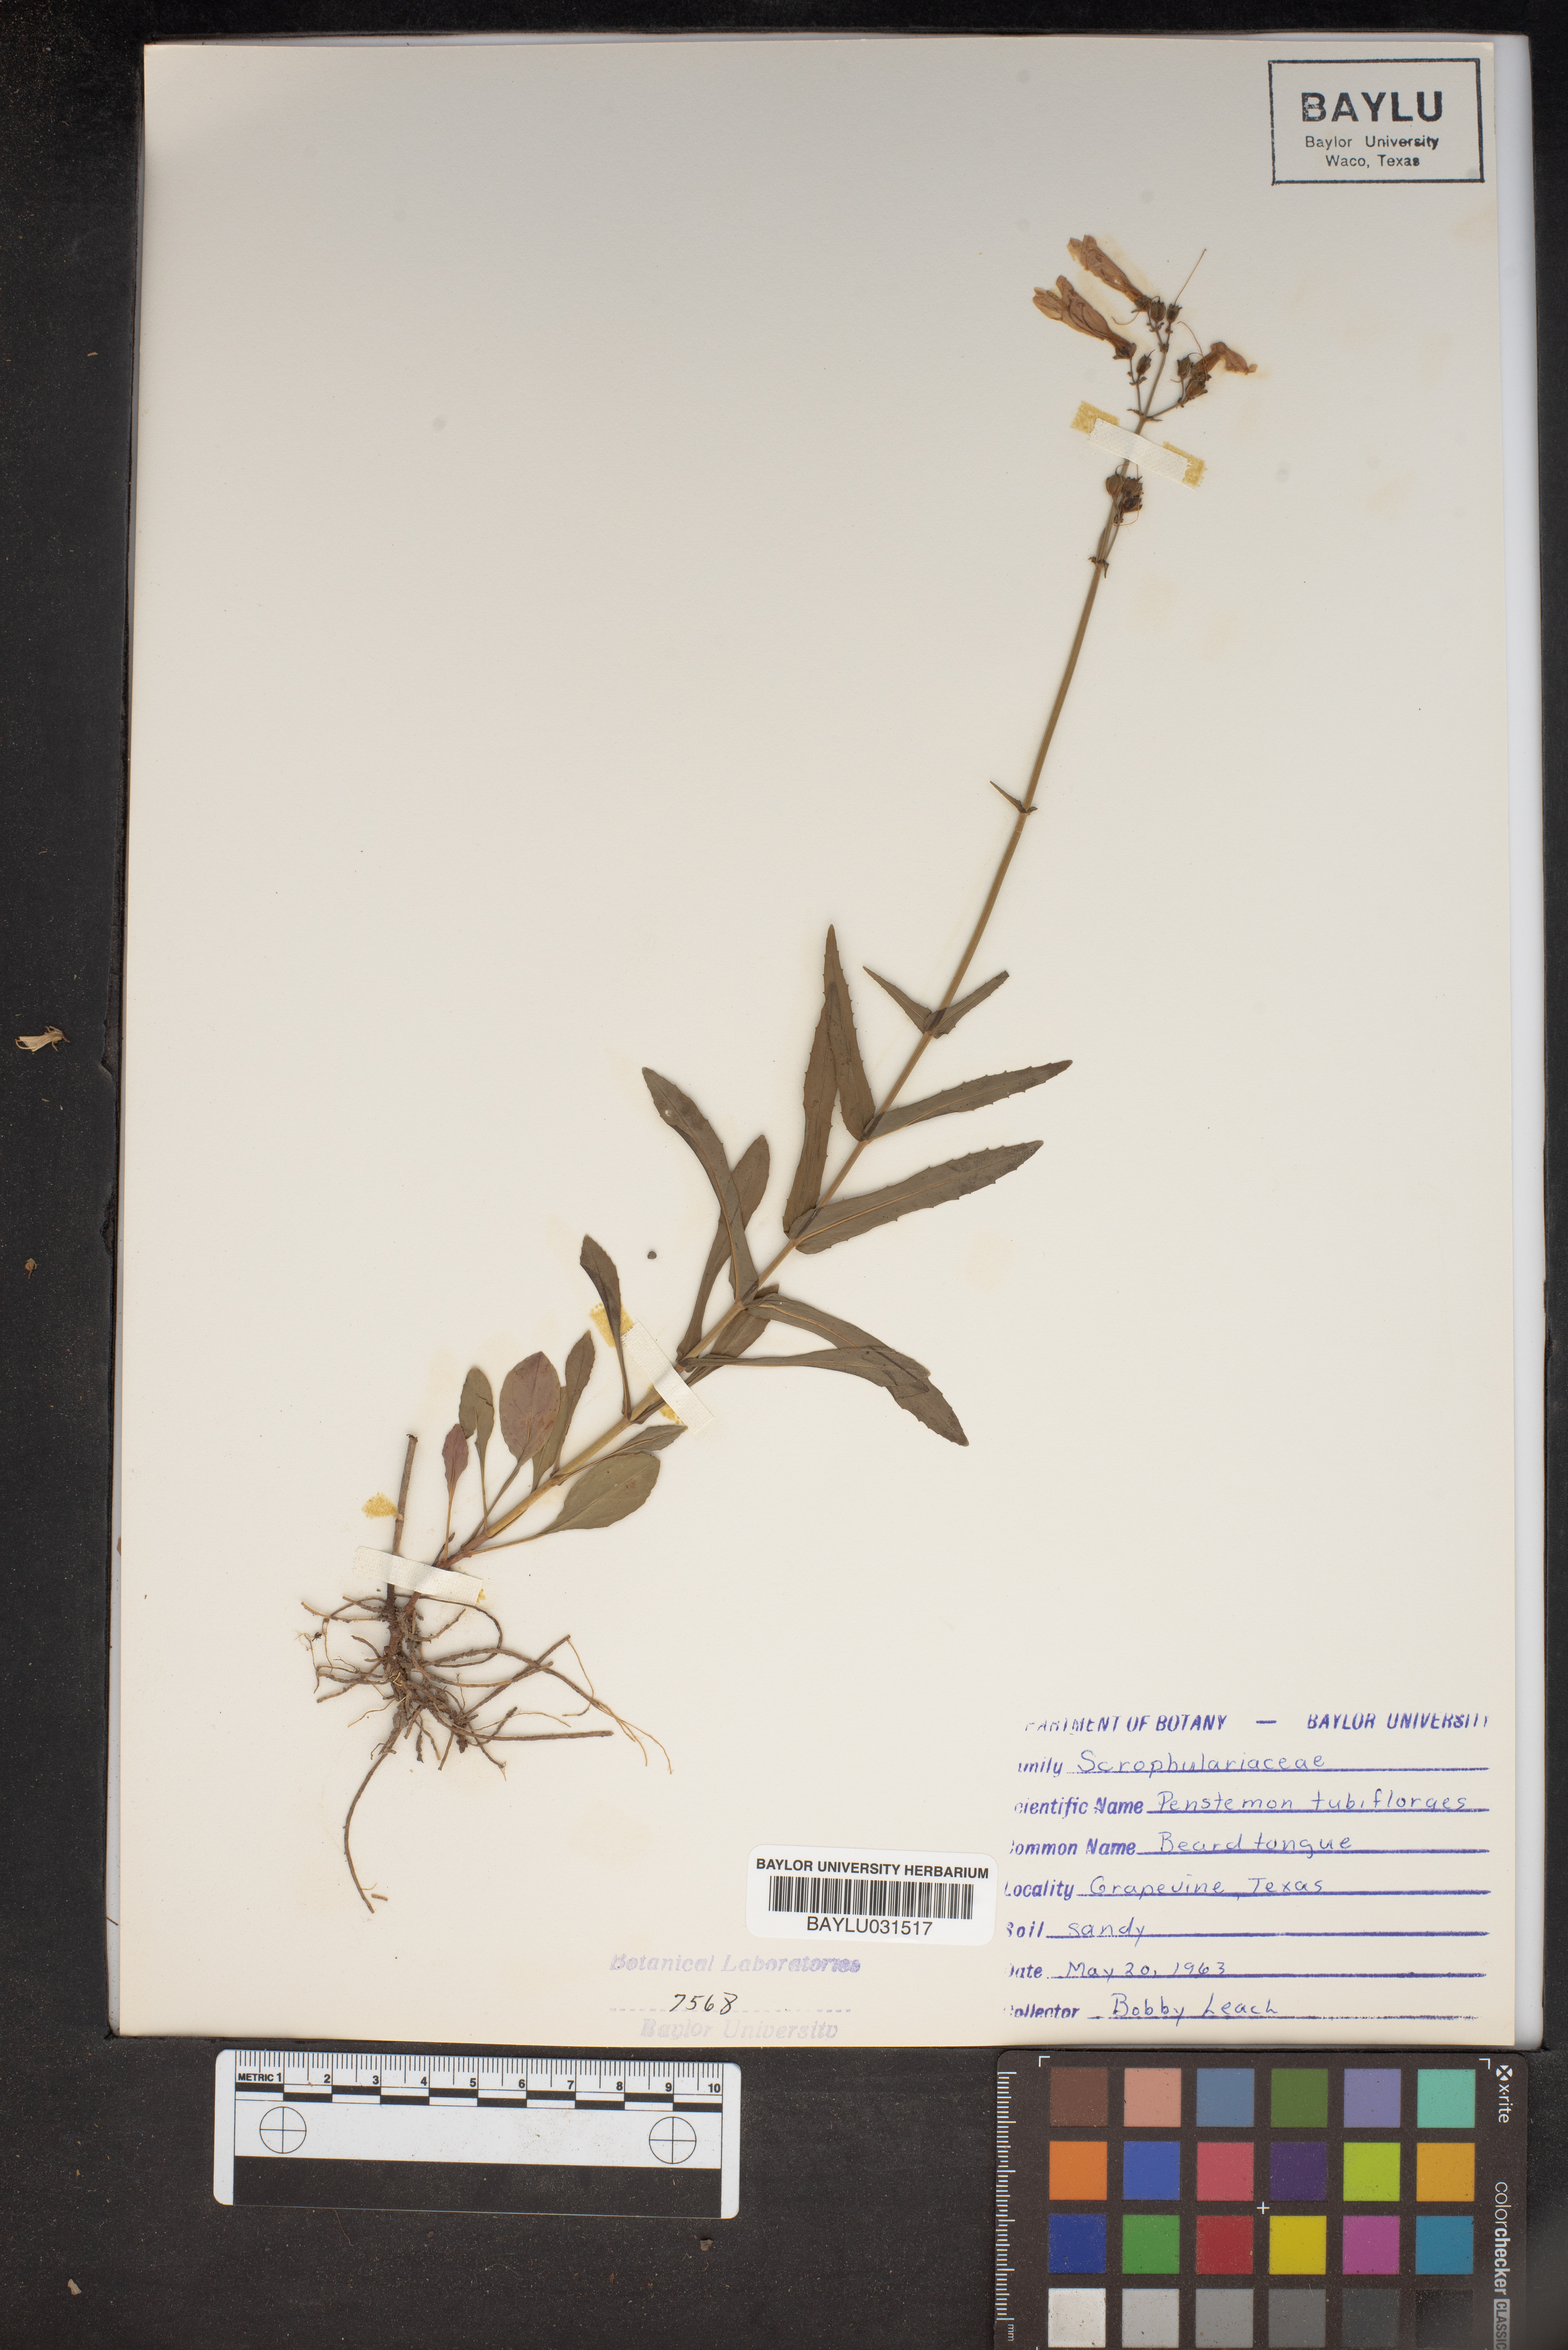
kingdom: Plantae
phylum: Tracheophyta
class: Magnoliopsida
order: Lamiales
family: Plantaginaceae
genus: Penstemon
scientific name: Penstemon tubaeflorus
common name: White wand beardtongue
